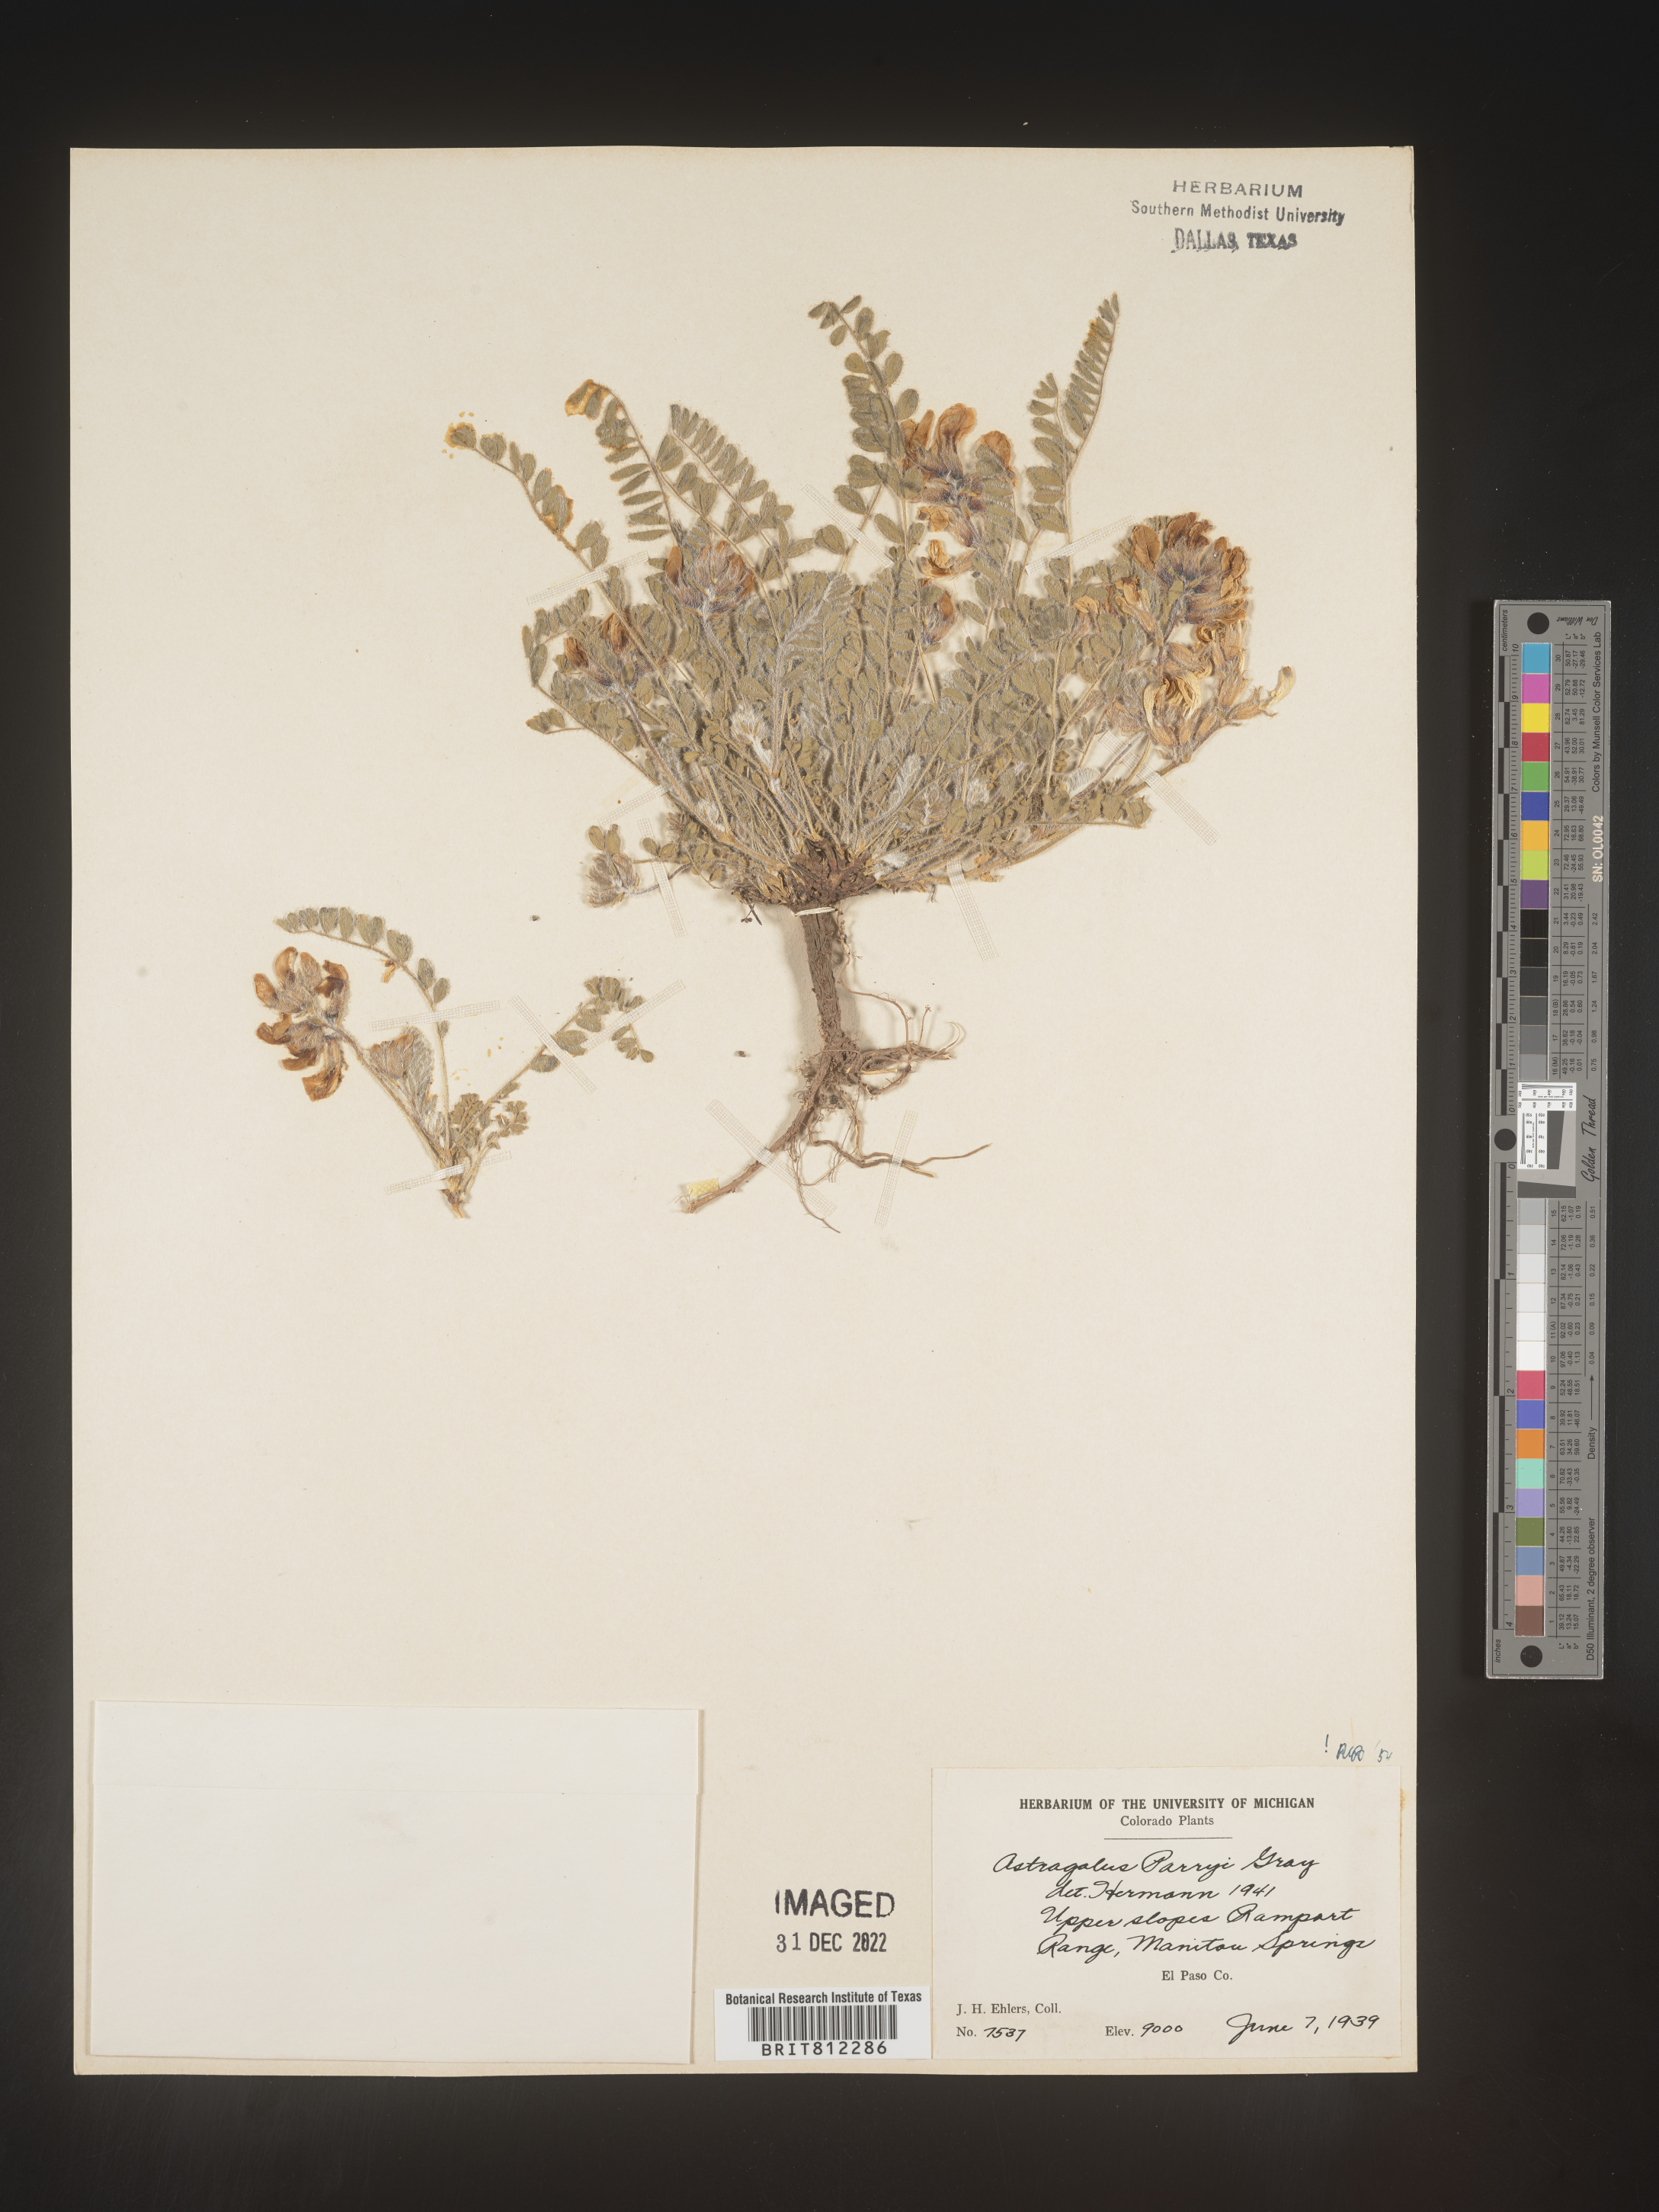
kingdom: Plantae
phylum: Tracheophyta
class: Magnoliopsida
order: Fabales
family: Fabaceae
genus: Astragalus
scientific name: Astragalus
